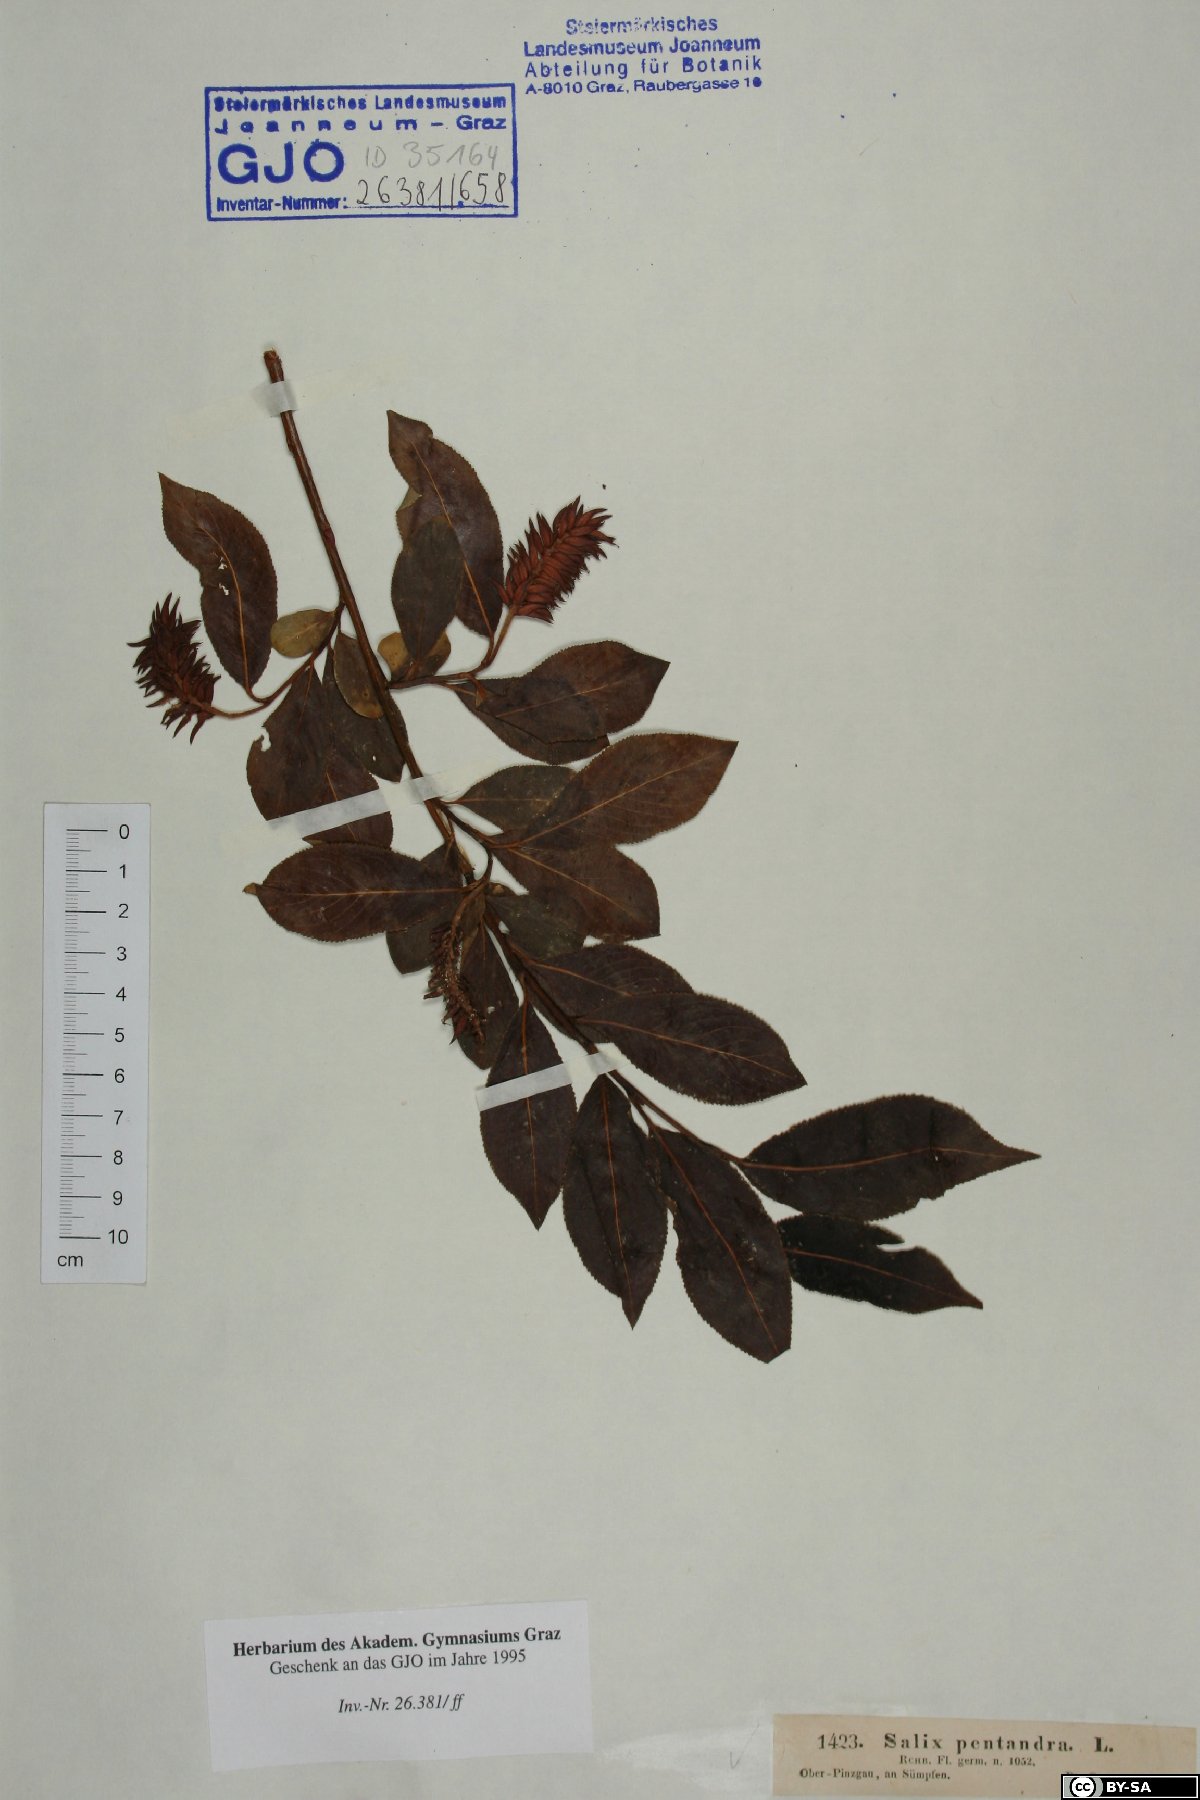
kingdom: Plantae
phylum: Tracheophyta
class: Magnoliopsida
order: Malpighiales
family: Salicaceae
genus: Salix
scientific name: Salix pentandra
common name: Bay willow
